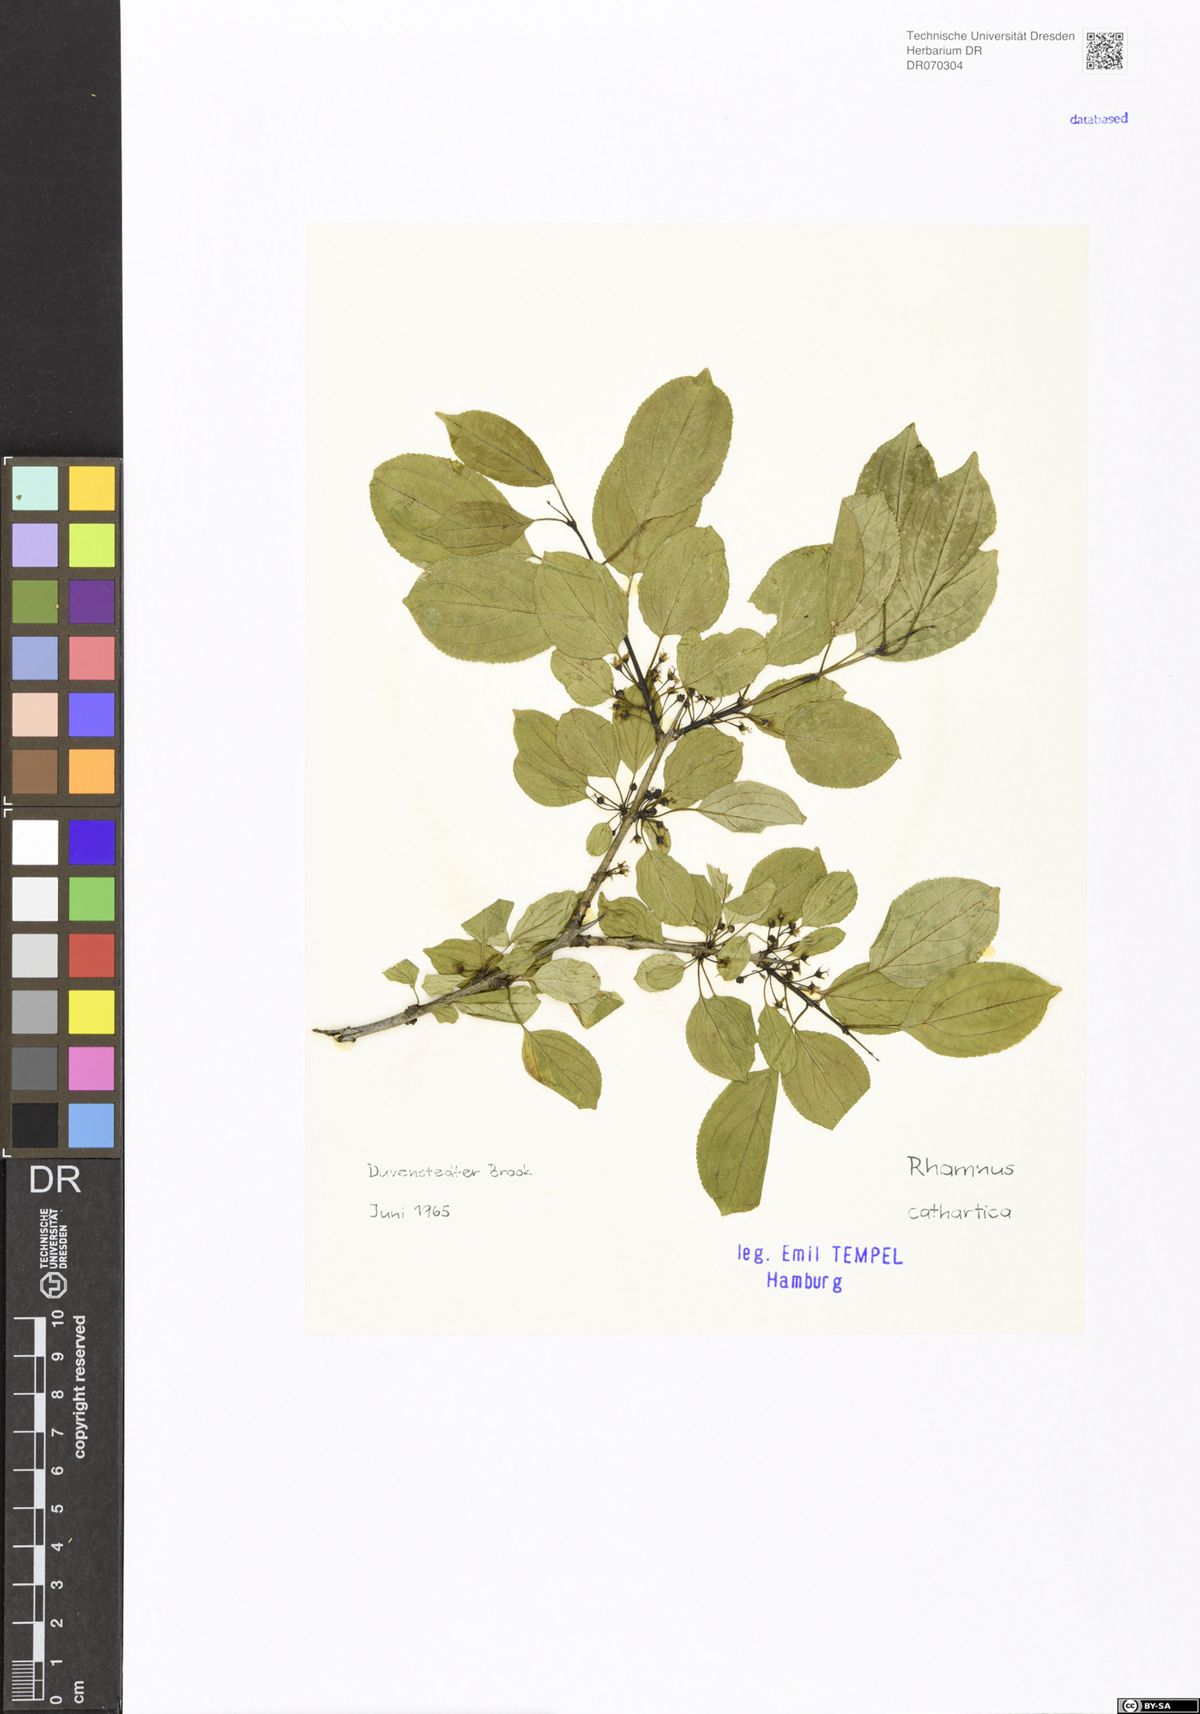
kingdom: Plantae
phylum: Tracheophyta
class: Magnoliopsida
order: Rosales
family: Rhamnaceae
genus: Rhamnus
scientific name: Rhamnus cathartica
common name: Common buckthorn
